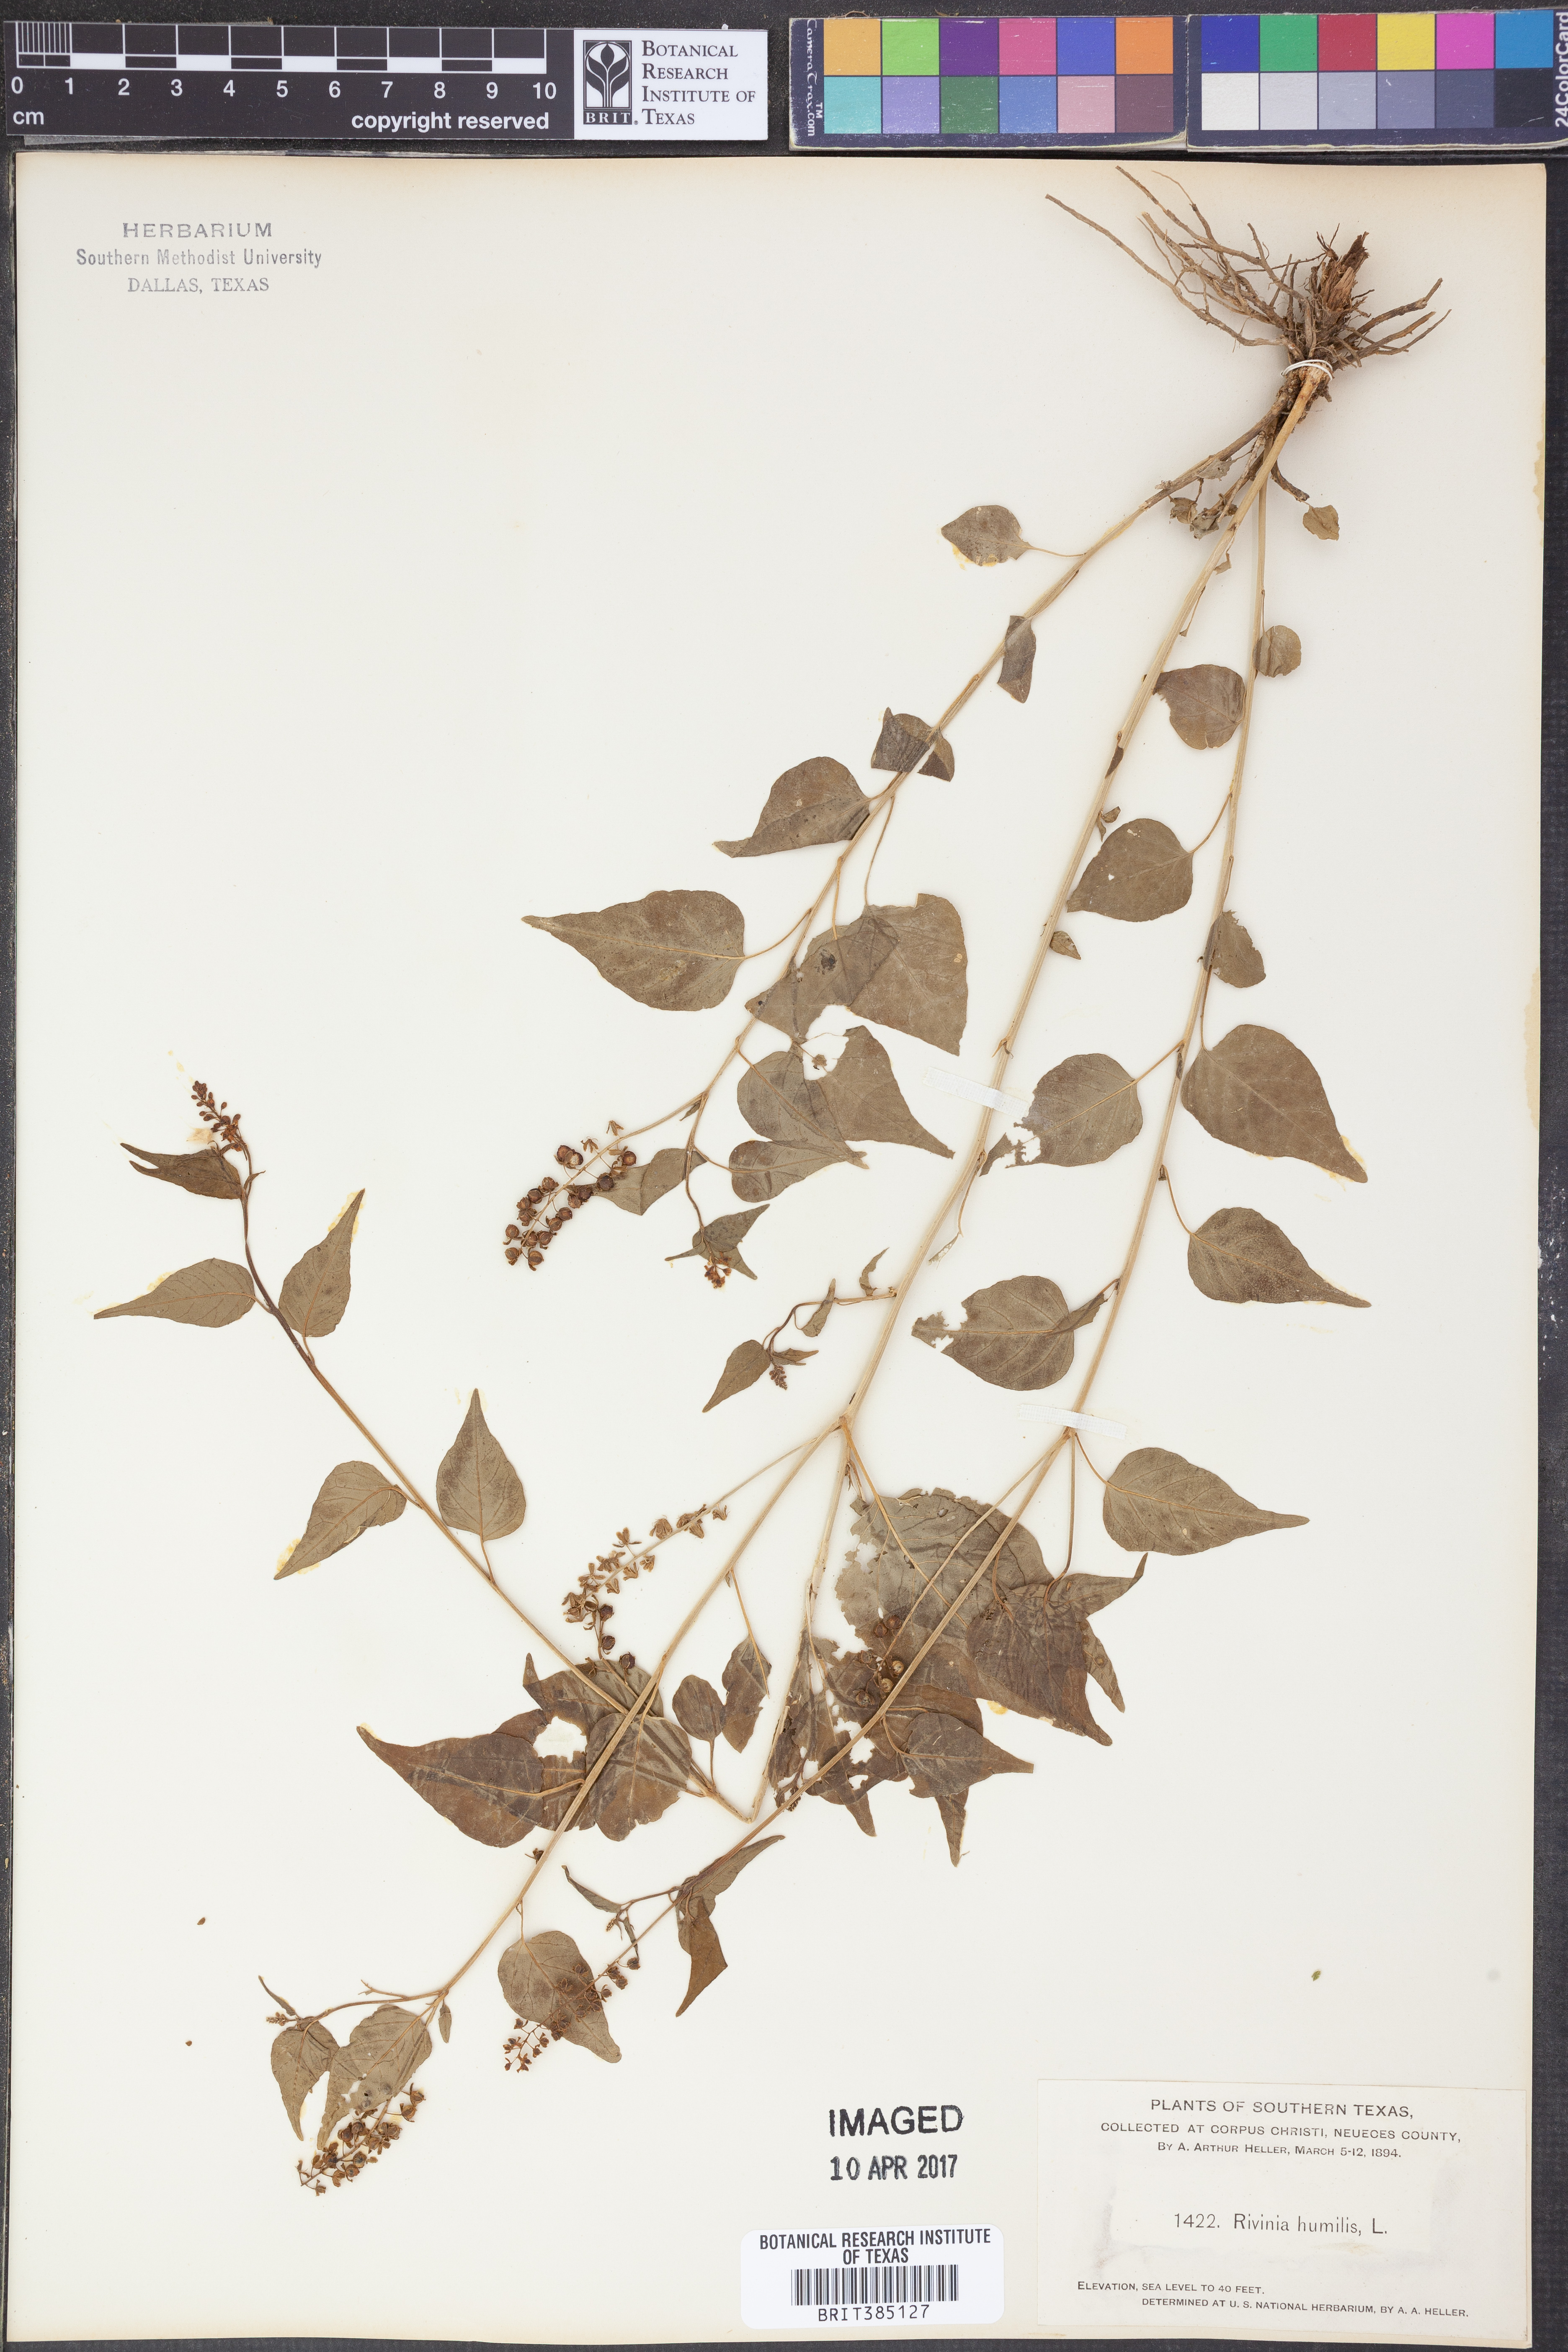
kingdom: Plantae
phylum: Tracheophyta
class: Magnoliopsida
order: Caryophyllales
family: Phytolaccaceae
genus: Rivina
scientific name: Rivina humilis
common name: Rougeplant
